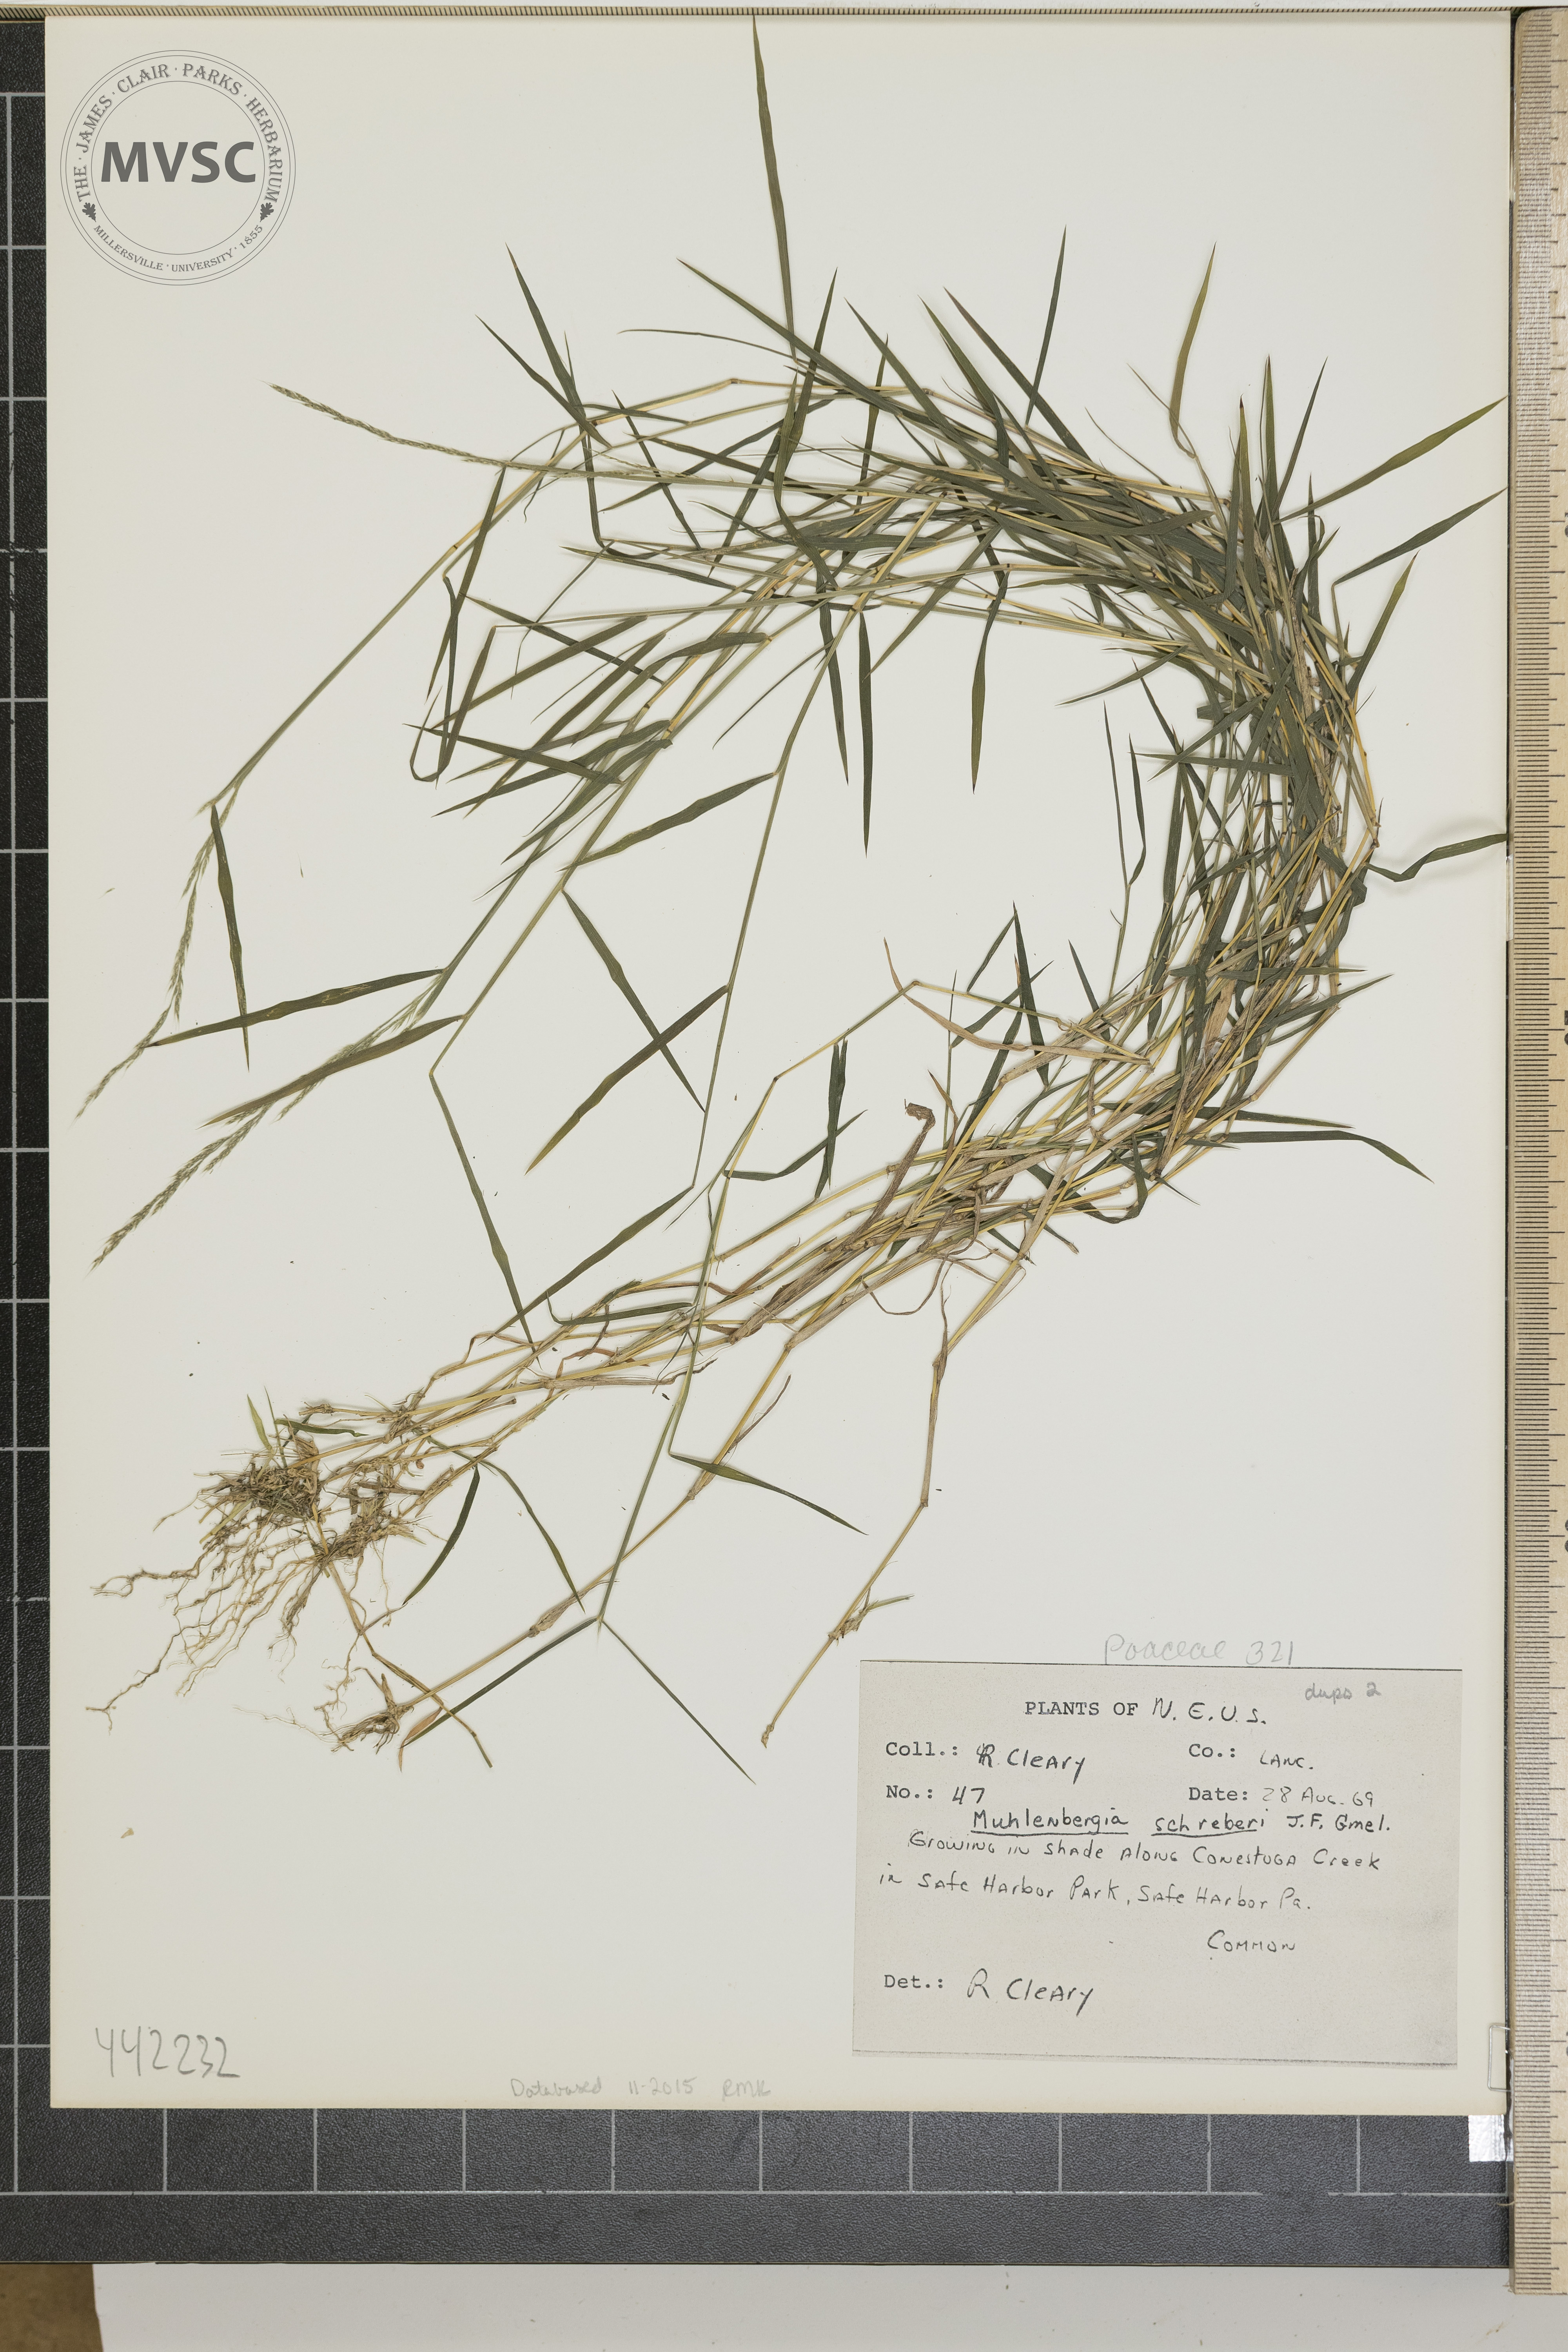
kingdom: Plantae
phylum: Tracheophyta
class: Liliopsida
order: Poales
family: Poaceae
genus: Muhlenbergia
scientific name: Muhlenbergia schreberi
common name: Nimblewill
